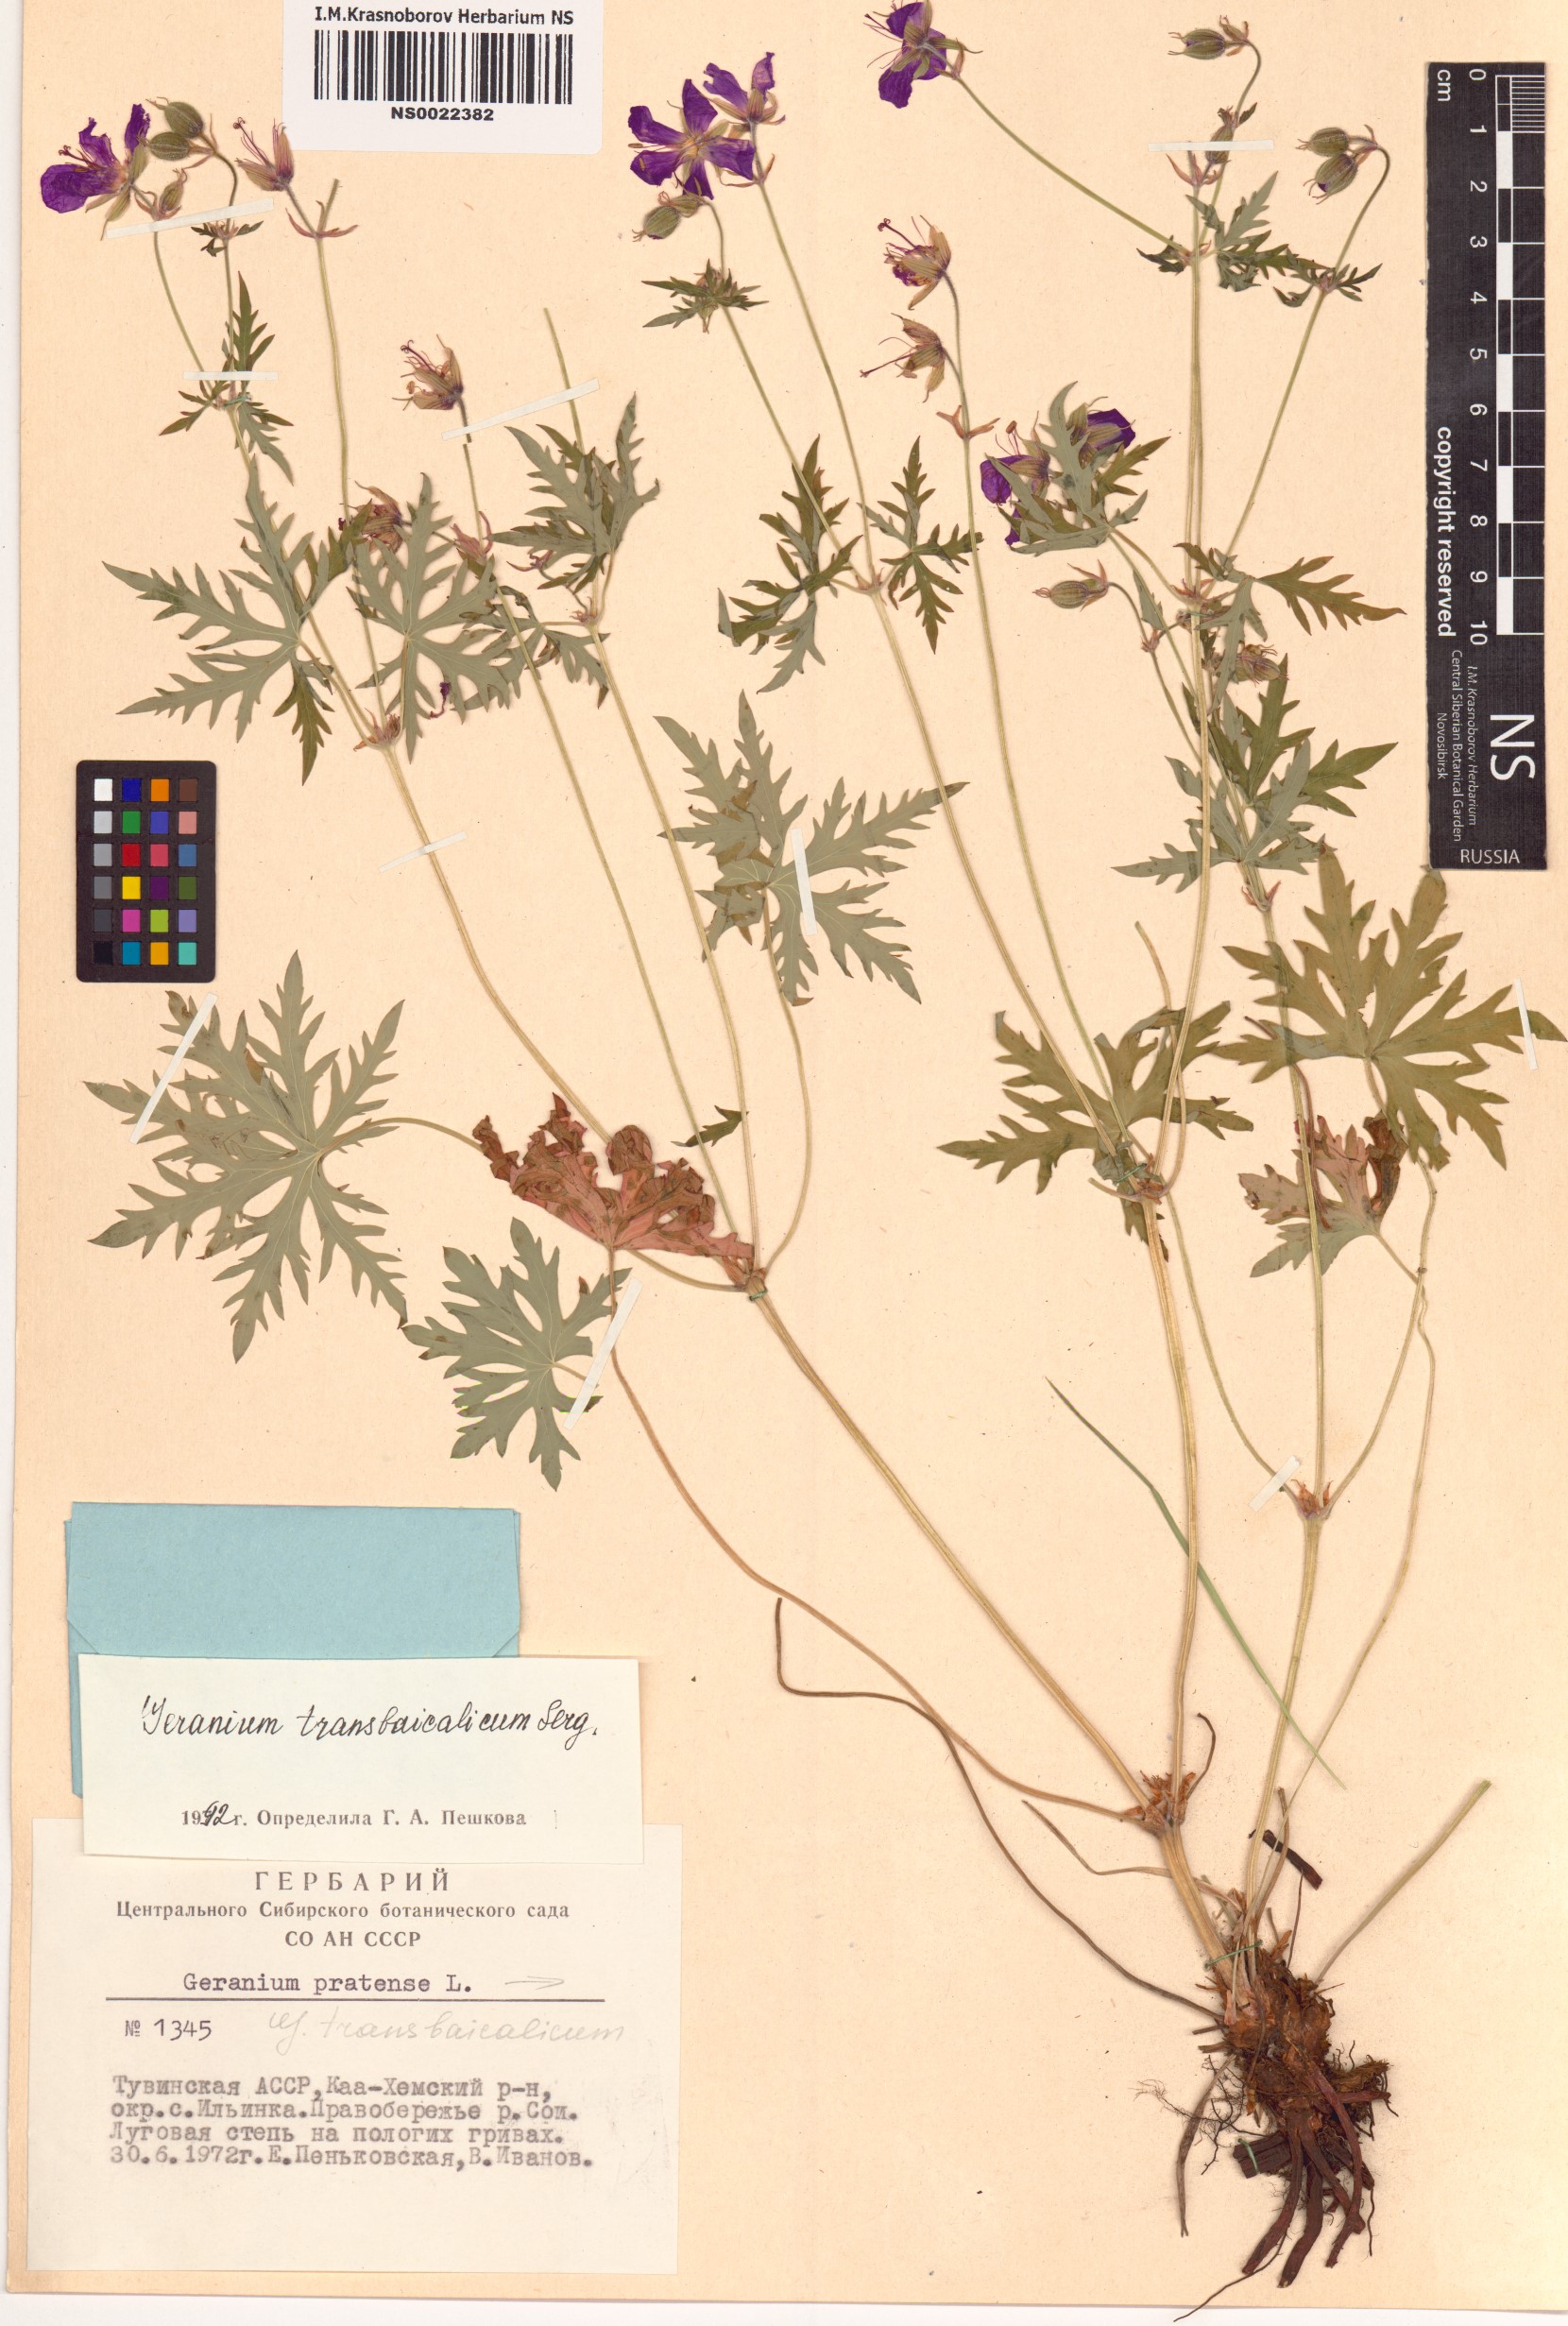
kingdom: Plantae
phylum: Tracheophyta
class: Magnoliopsida
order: Geraniales
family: Geraniaceae
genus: Geranium
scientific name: Geranium pratense
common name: Meadow crane's-bill
